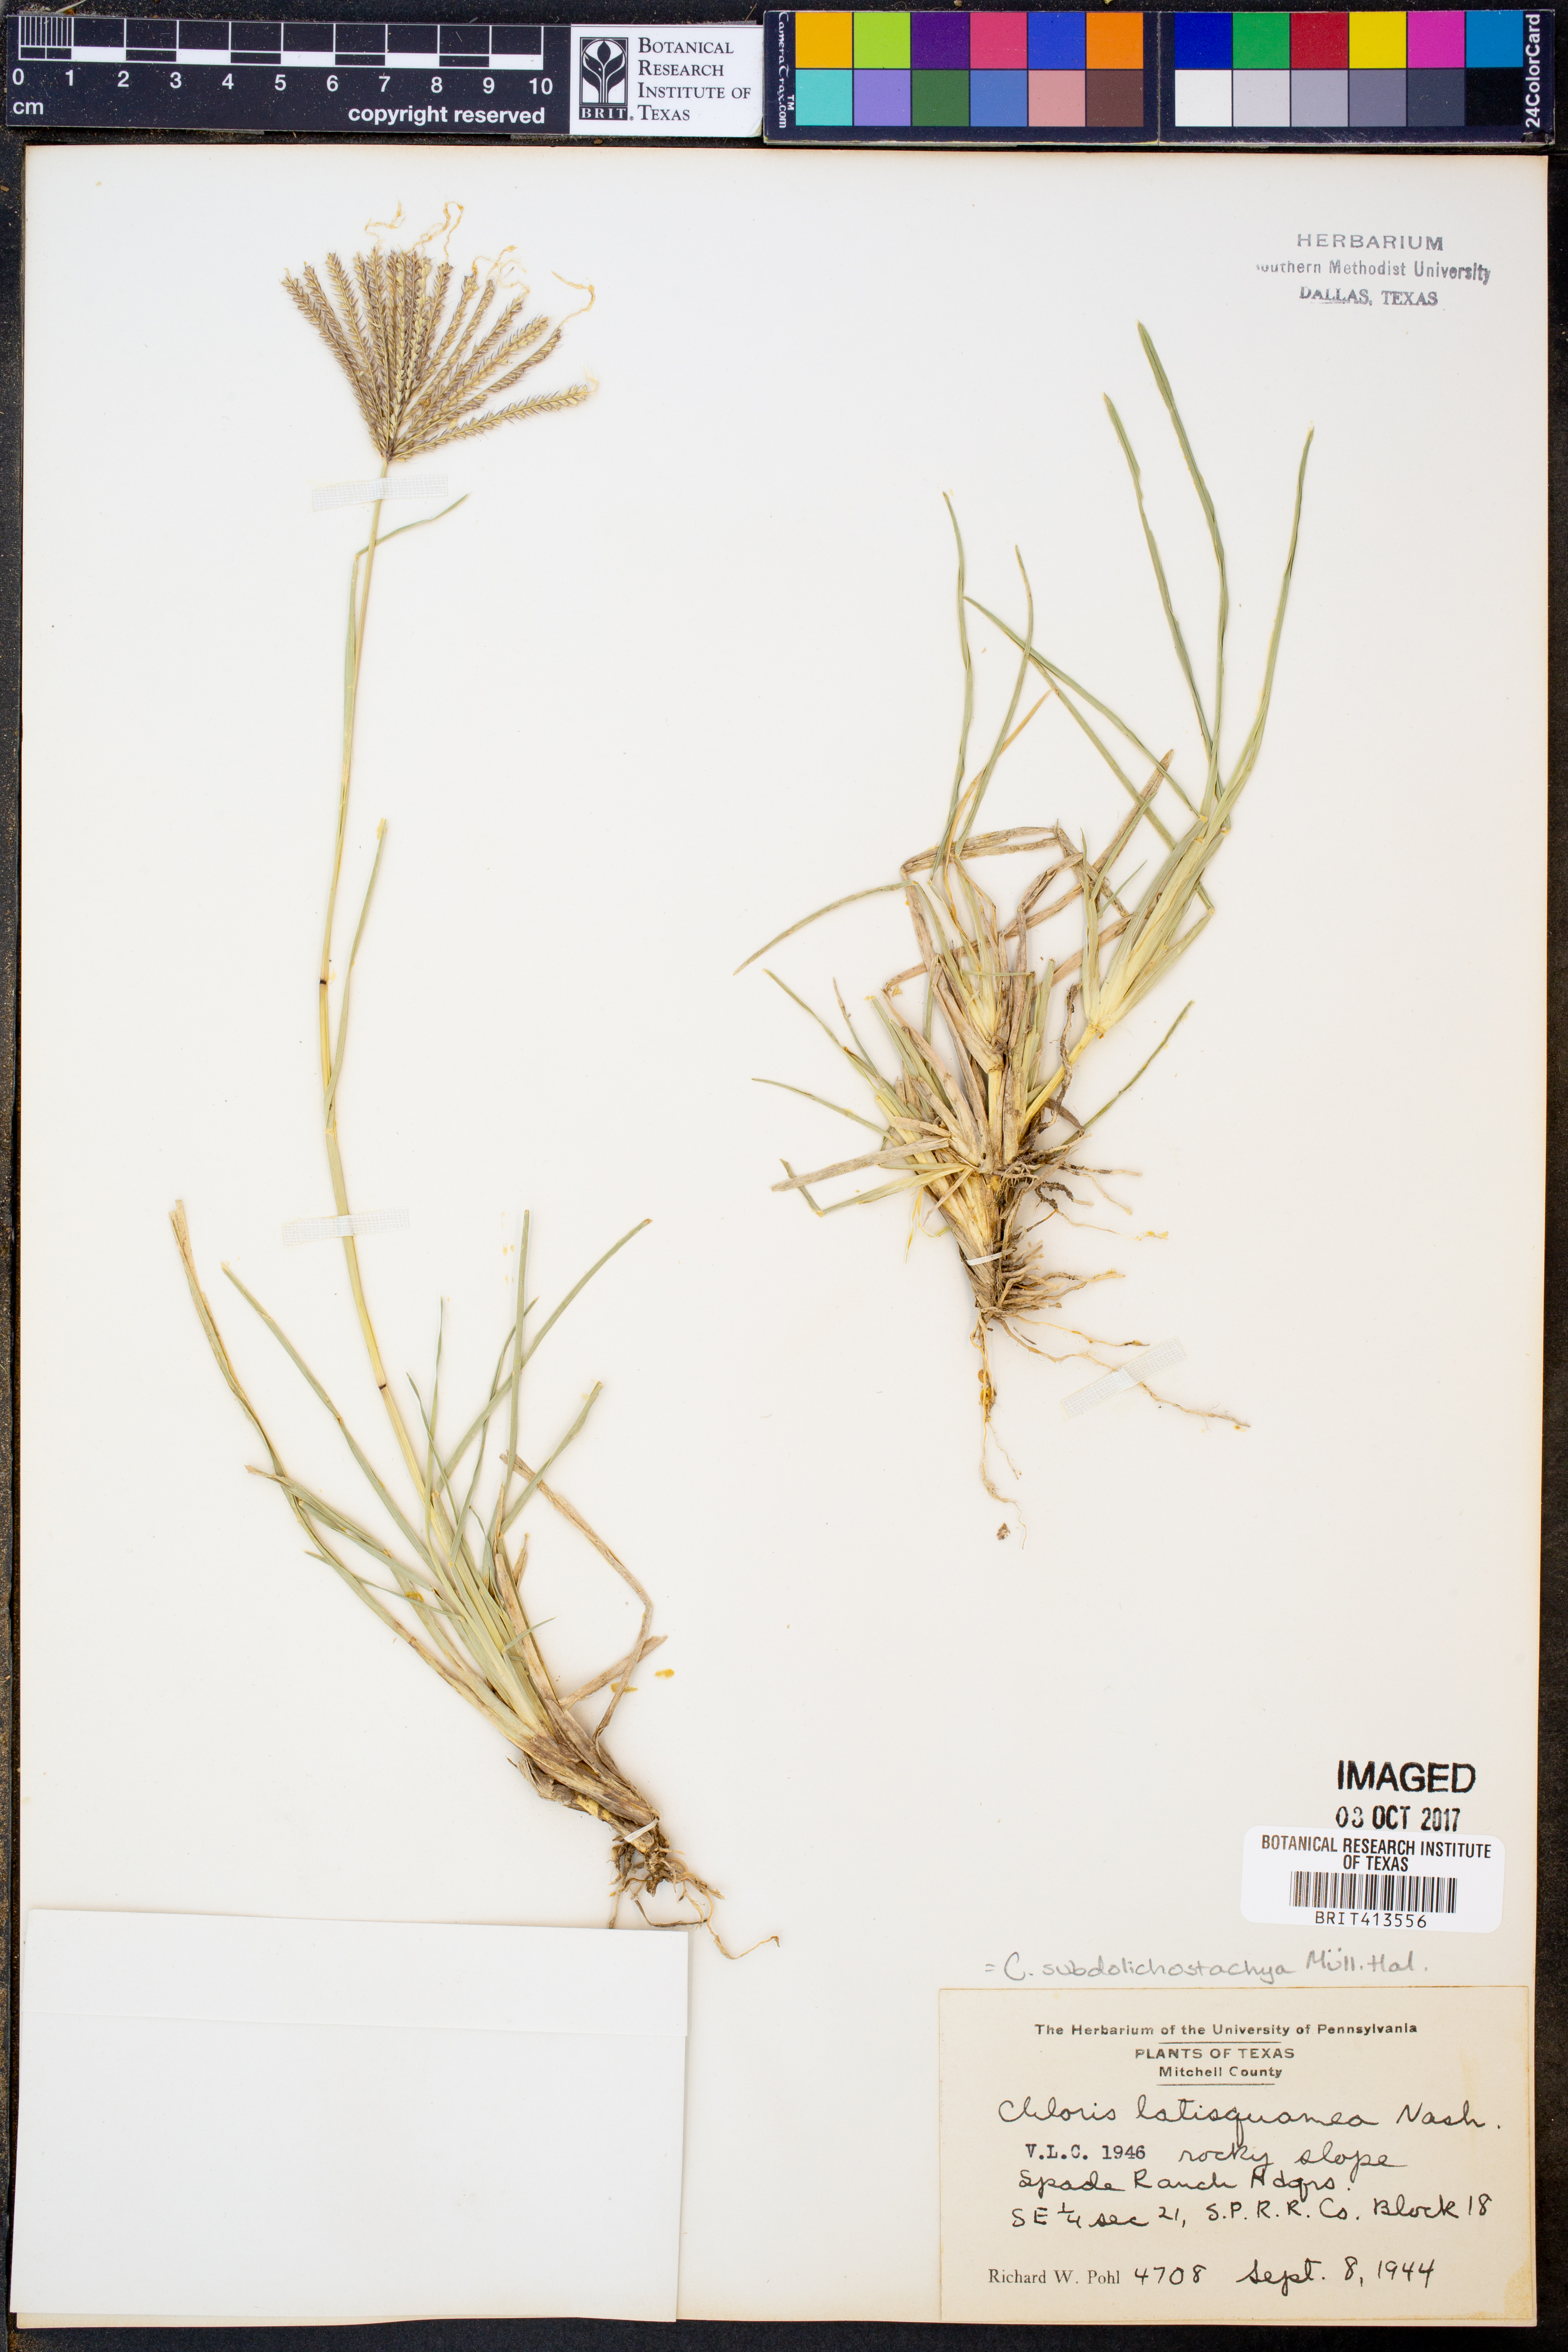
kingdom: Plantae
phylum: Tracheophyta
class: Liliopsida
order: Poales
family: Poaceae
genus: Chloris
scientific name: Chloris subdolichostachya
